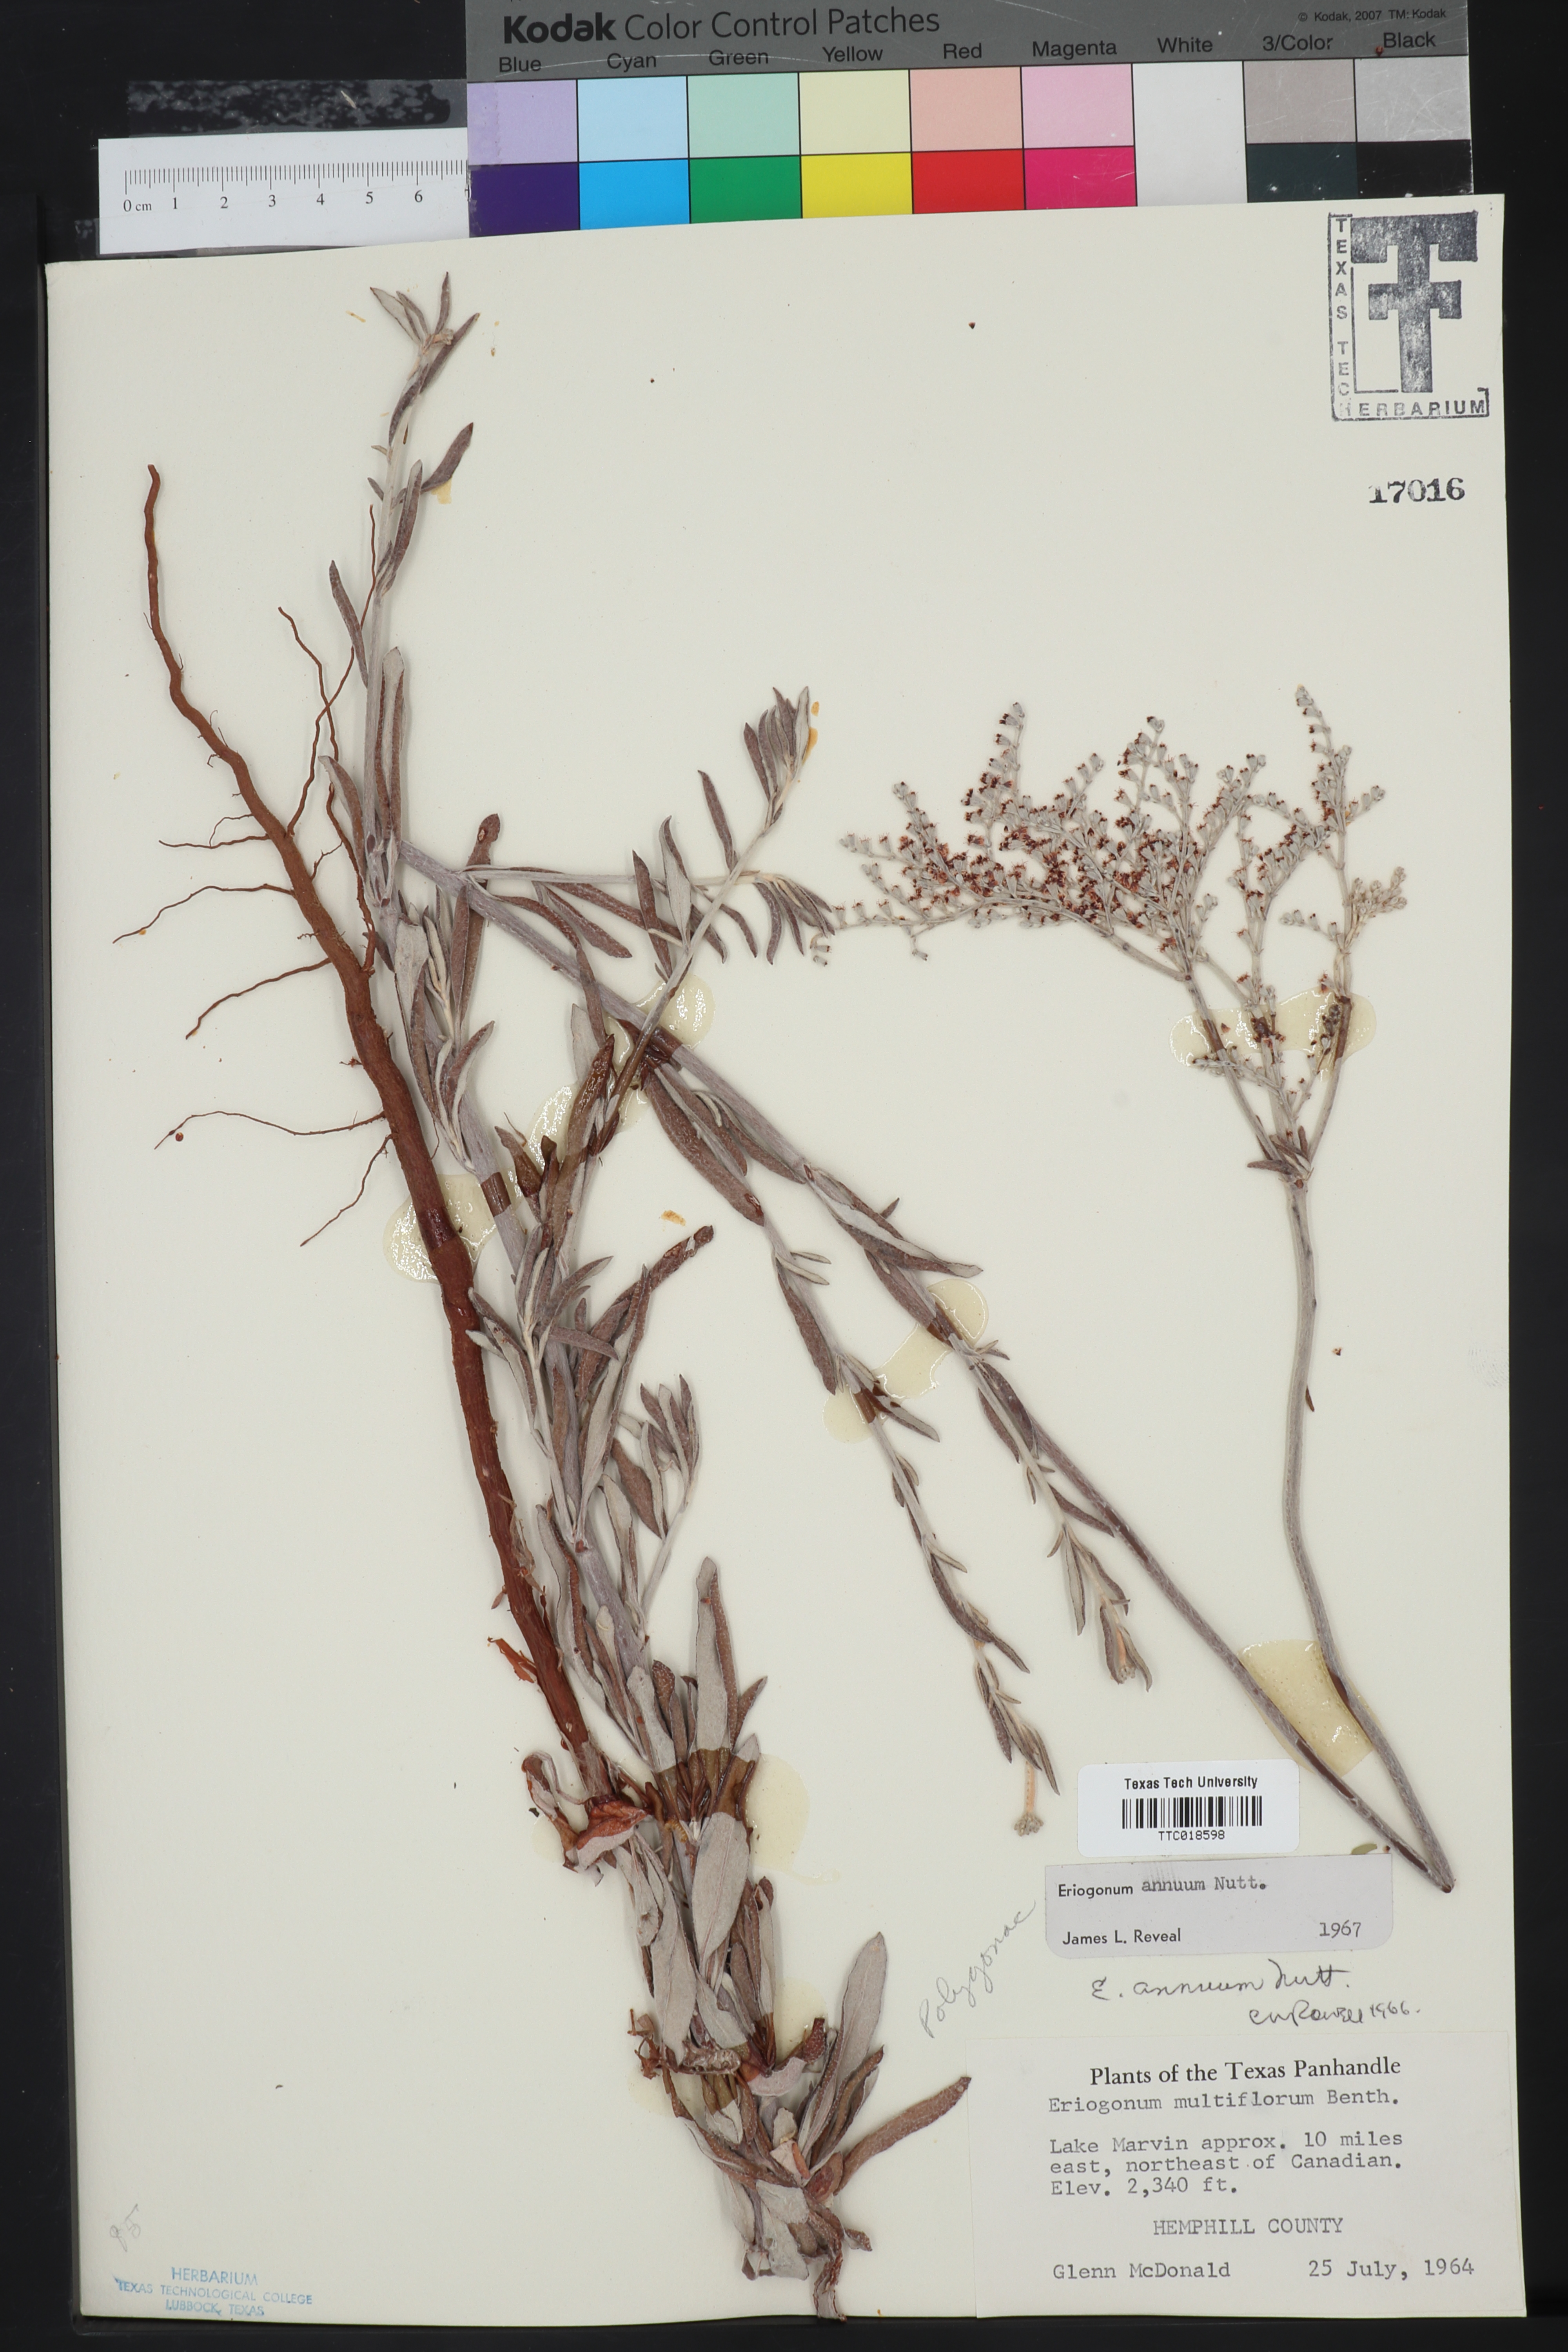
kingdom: Plantae
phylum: Tracheophyta
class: Magnoliopsida
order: Caryophyllales
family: Polygonaceae
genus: Eriogonum
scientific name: Eriogonum annuum
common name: Annual wild buckwheat
